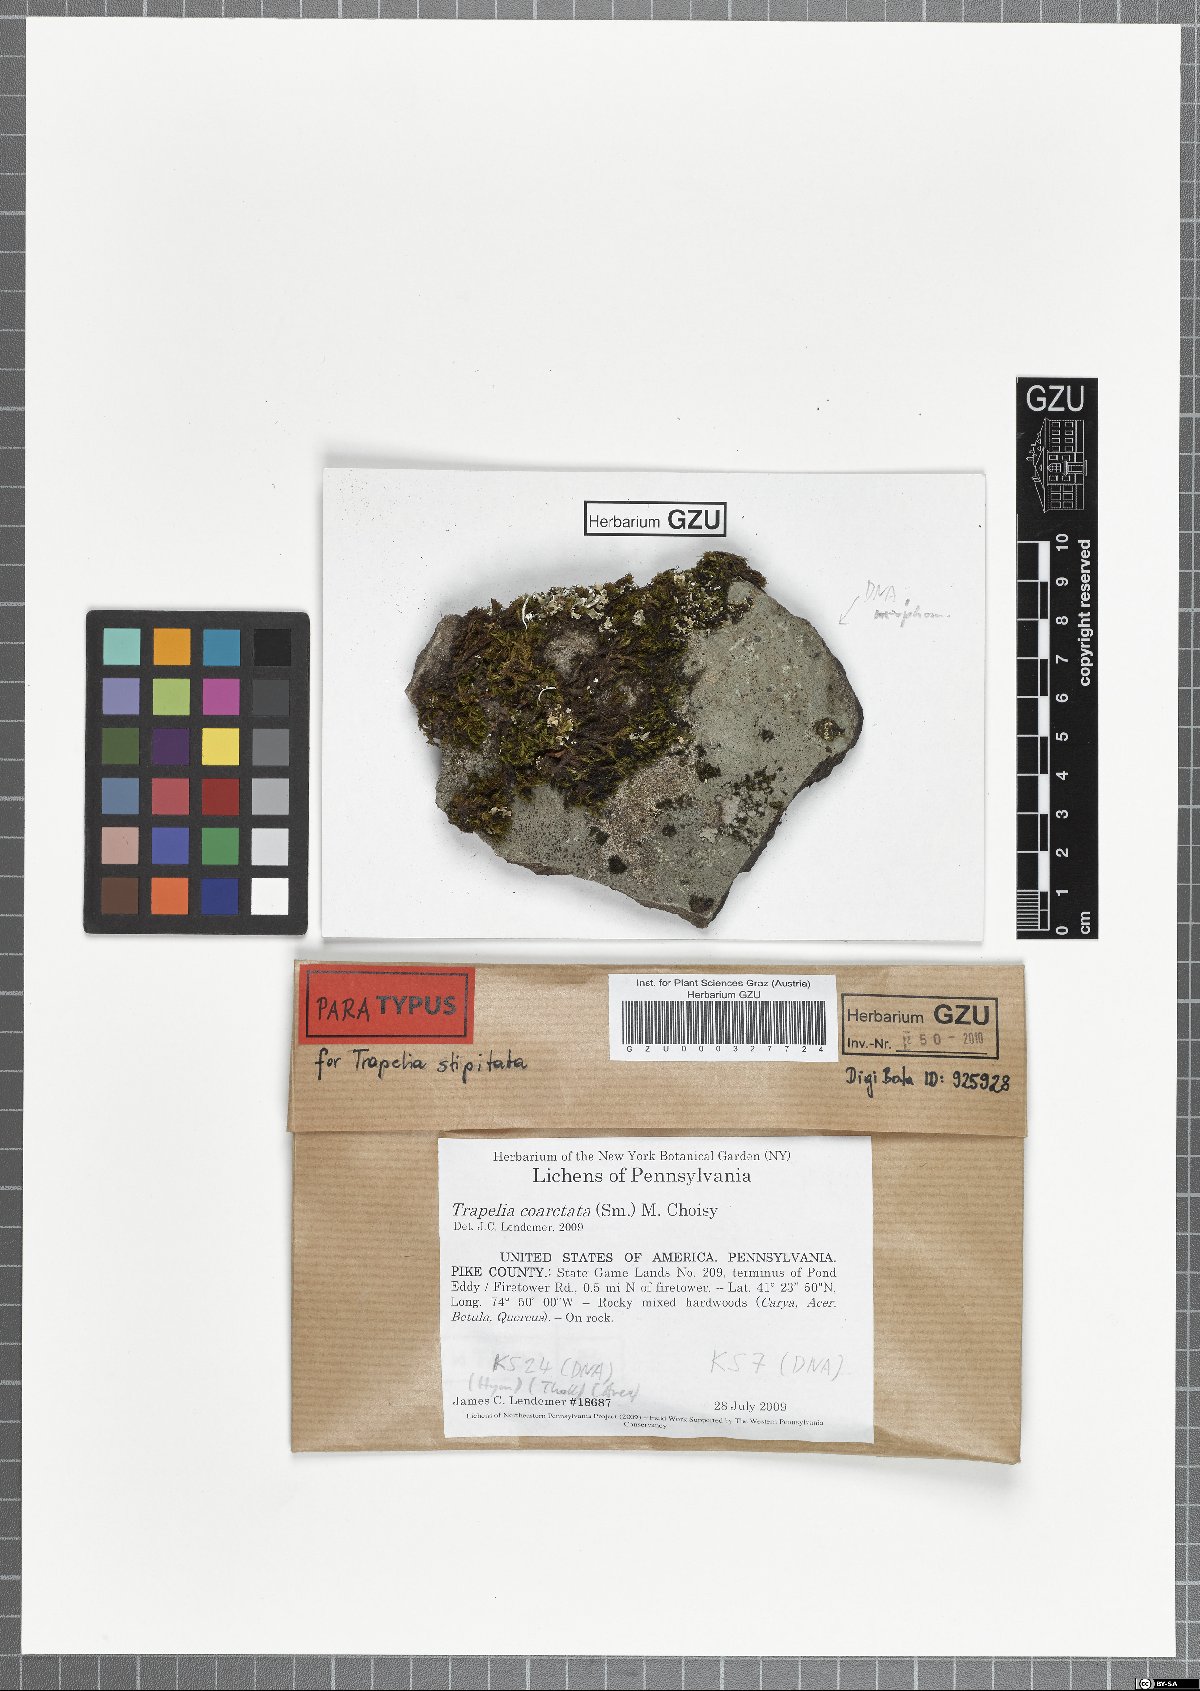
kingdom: Fungi
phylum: Ascomycota
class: Lecanoromycetes
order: Baeomycetales
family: Trapeliaceae
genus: Trapelia
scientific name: Trapelia stipitata
